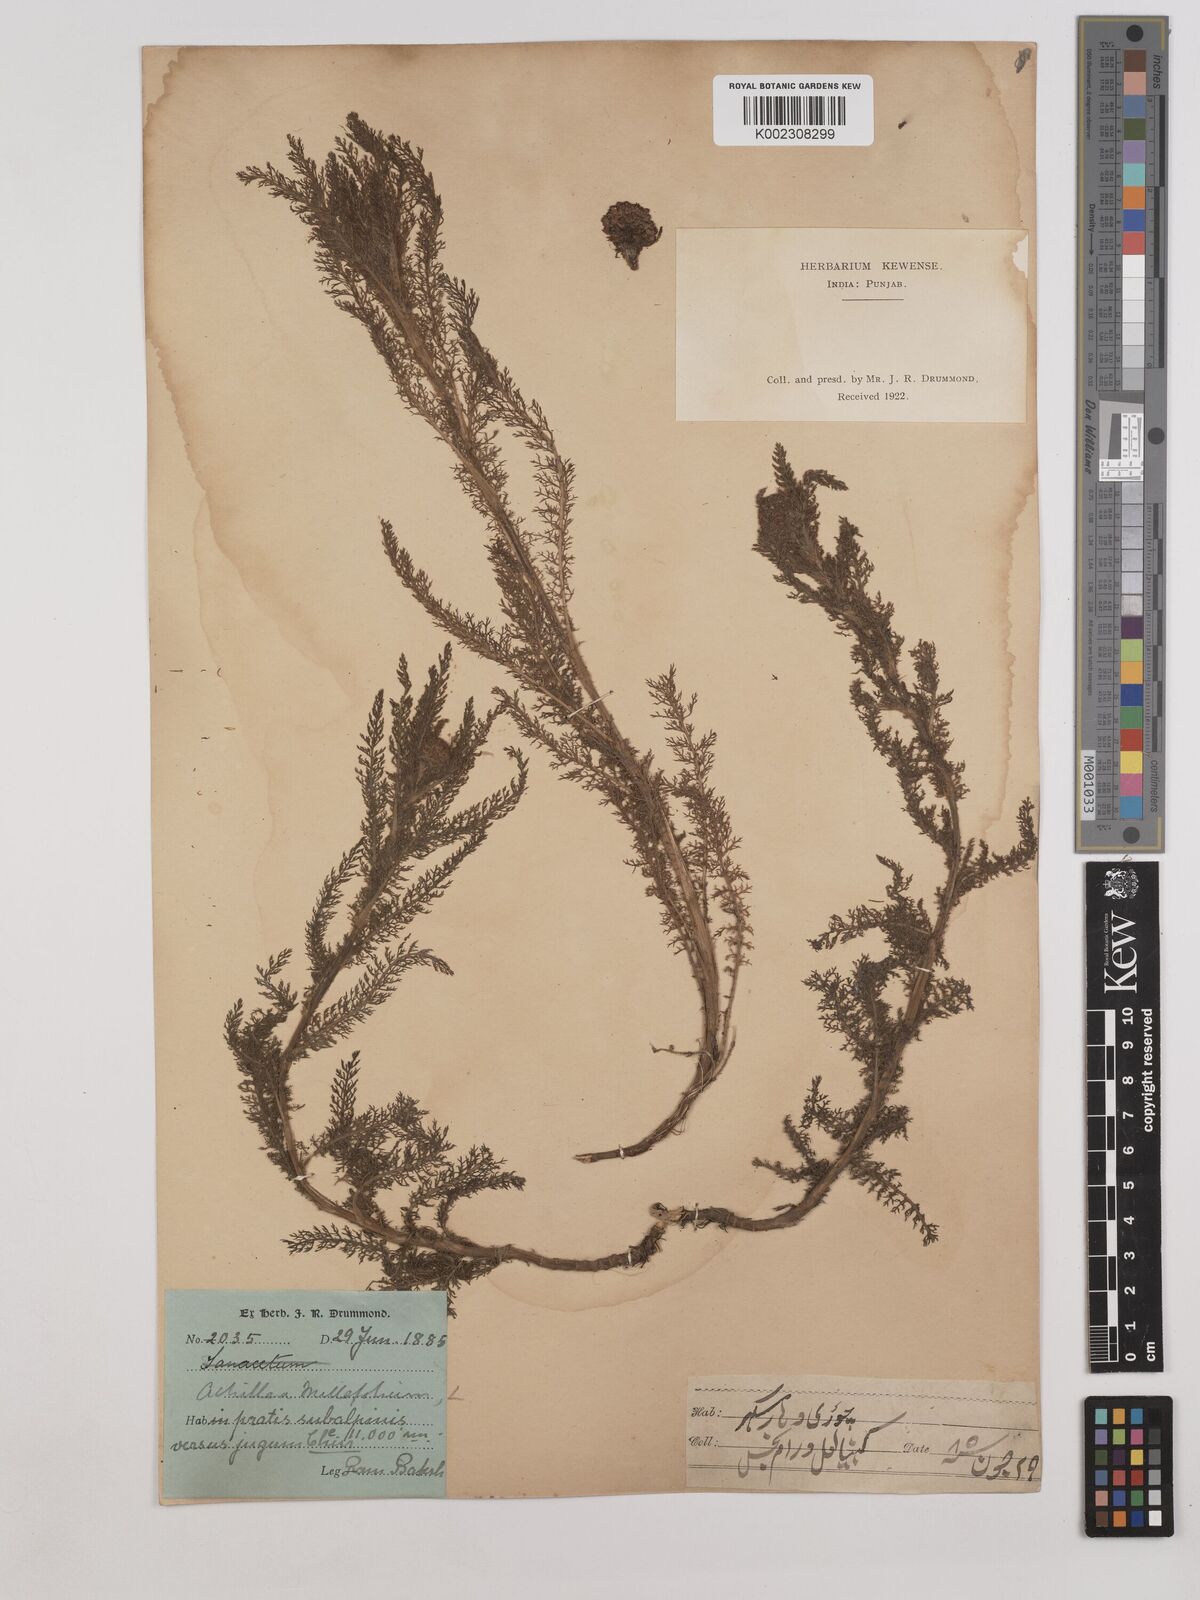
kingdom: Plantae
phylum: Tracheophyta
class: Magnoliopsida
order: Asterales
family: Asteraceae
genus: Achillea
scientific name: Achillea millefolium
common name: Yarrow
